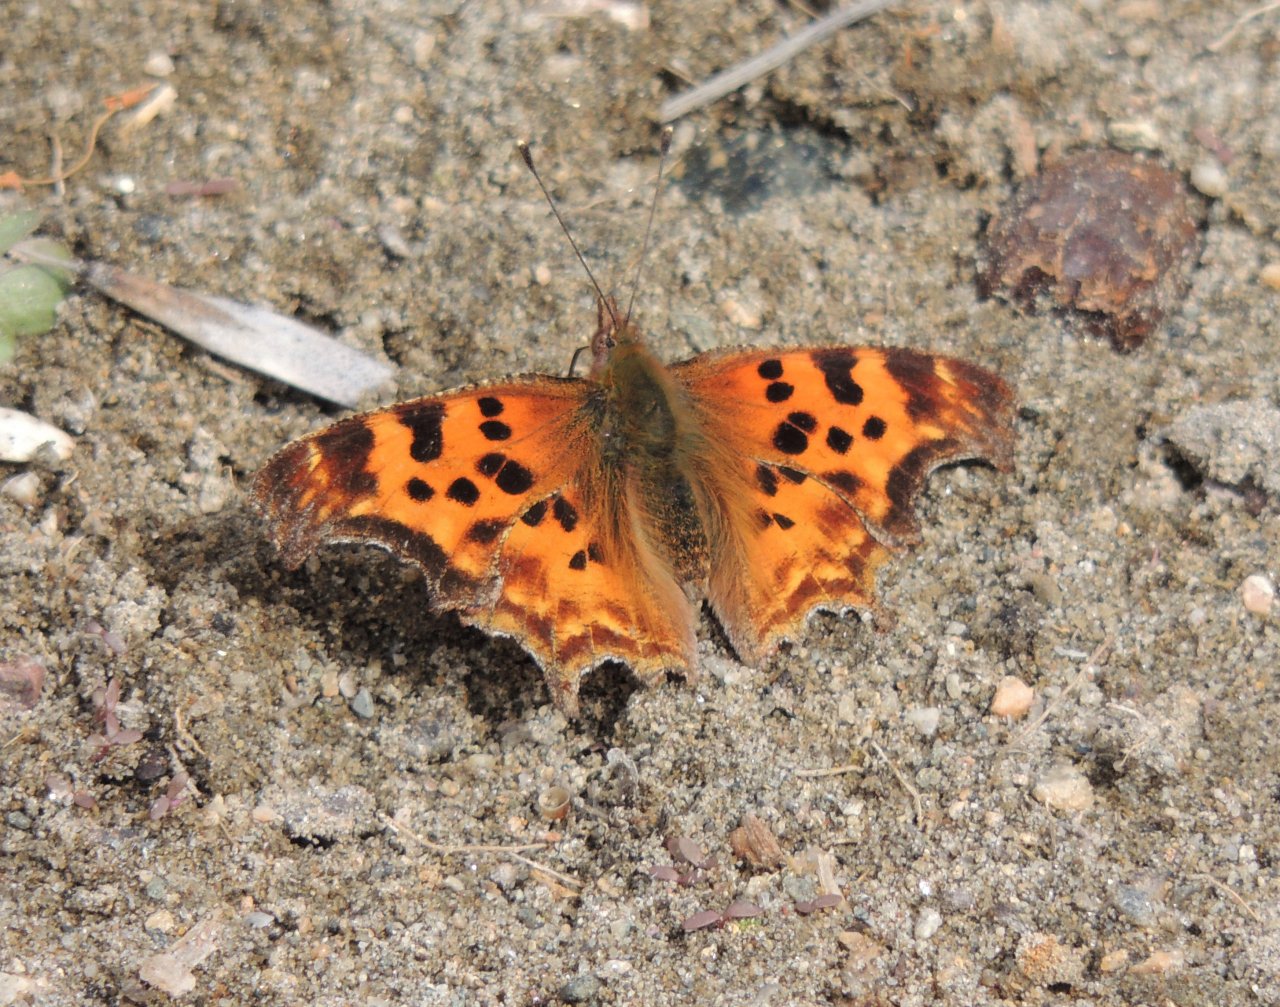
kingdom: Animalia
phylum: Arthropoda
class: Insecta
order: Lepidoptera
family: Nymphalidae
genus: Polygonia
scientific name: Polygonia satyrus
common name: Satyr Comma
